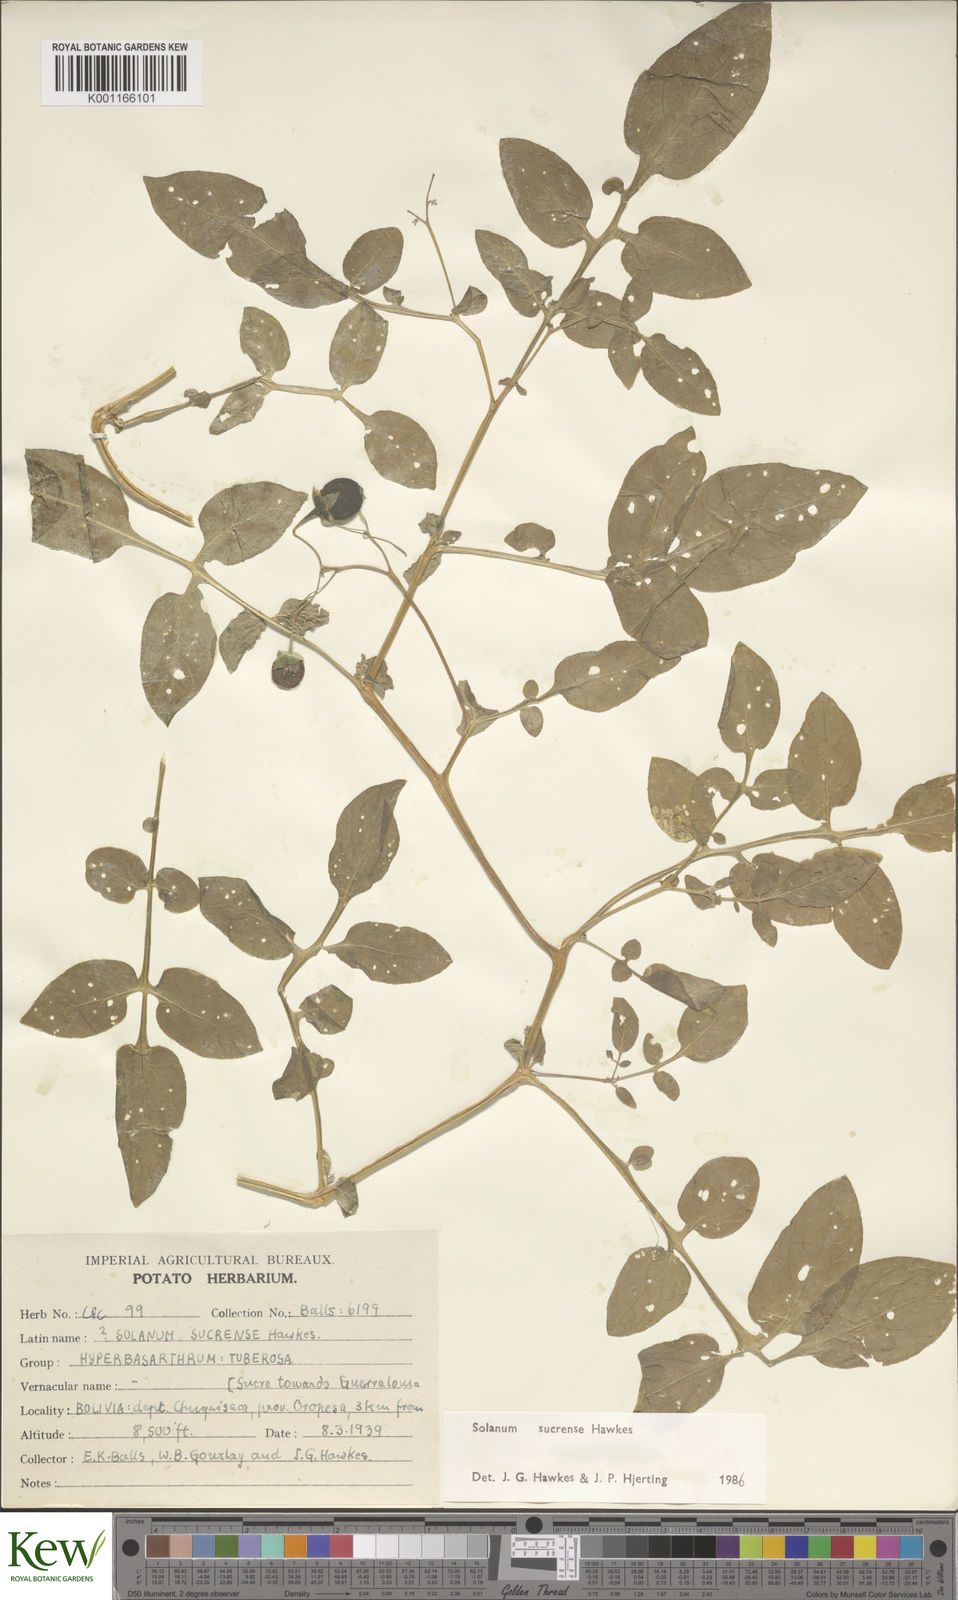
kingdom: Plantae
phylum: Tracheophyta
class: Magnoliopsida
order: Solanales
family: Solanaceae
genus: Solanum
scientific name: Solanum brevicaule
